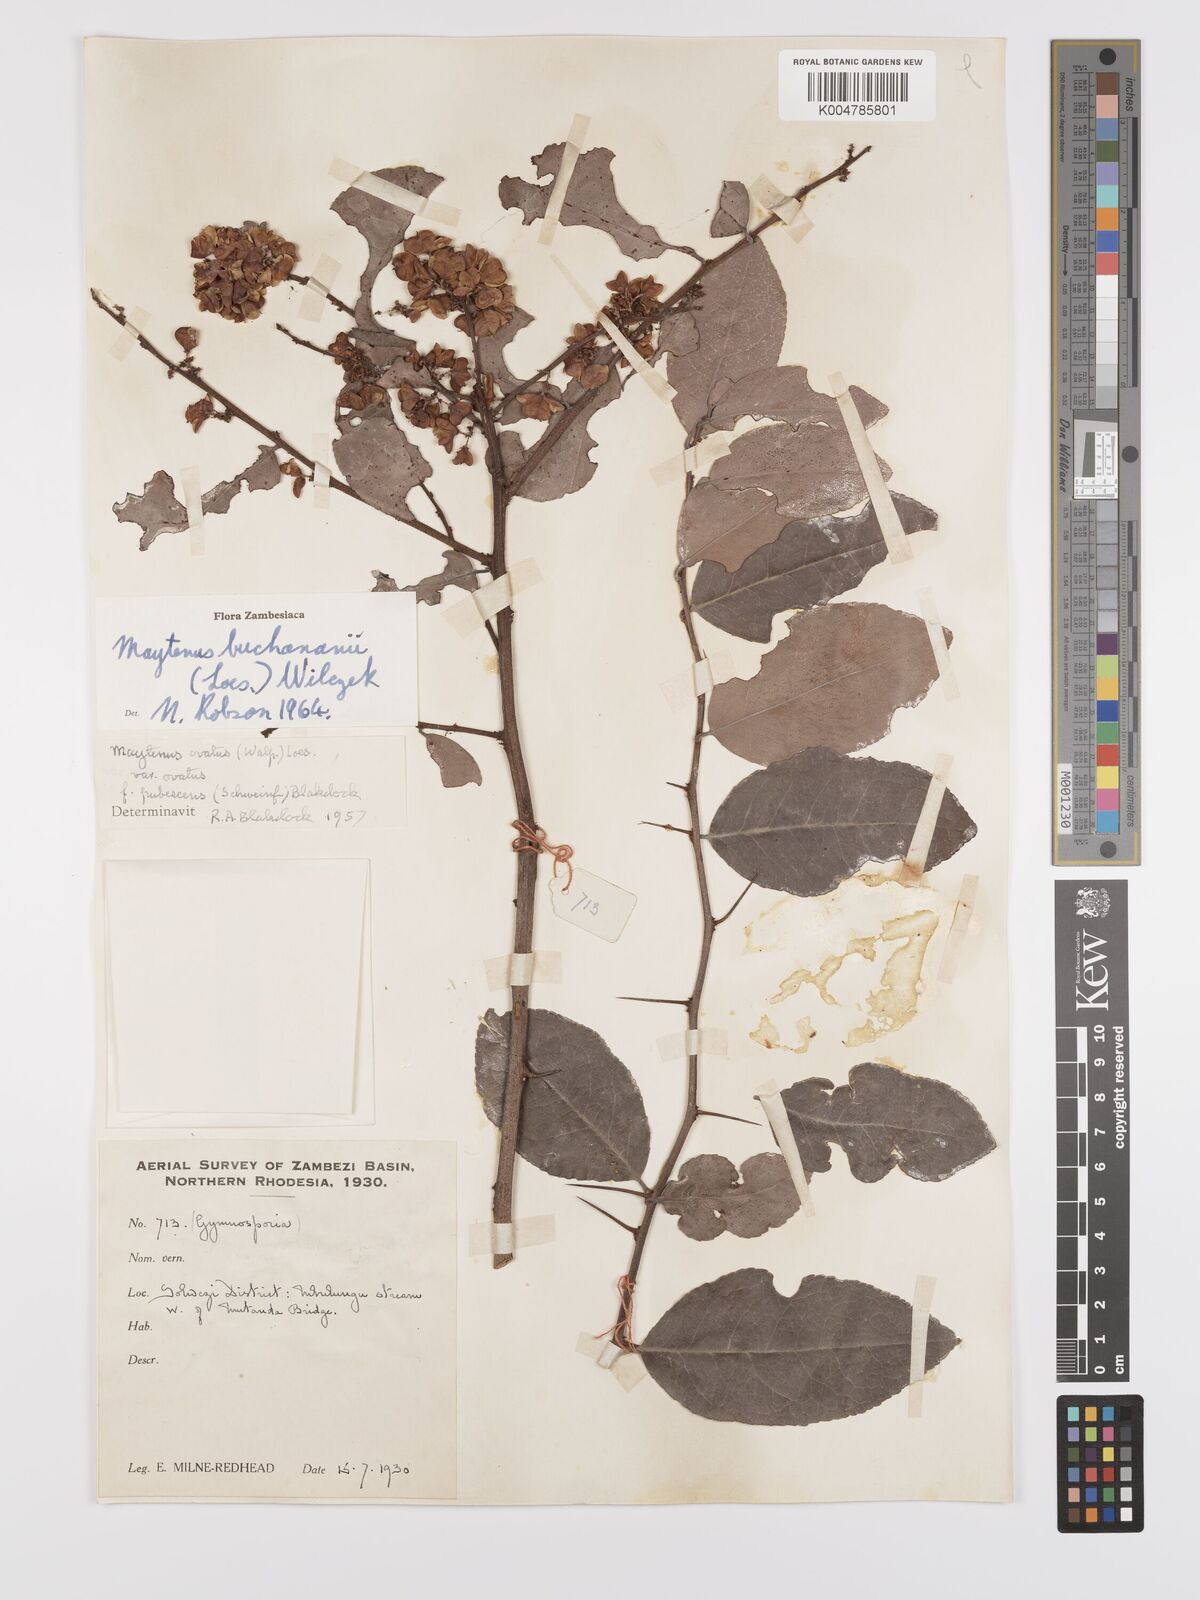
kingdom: Plantae
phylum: Tracheophyta
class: Magnoliopsida
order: Celastrales
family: Celastraceae
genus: Gymnosporia
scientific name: Gymnosporia buchananii
